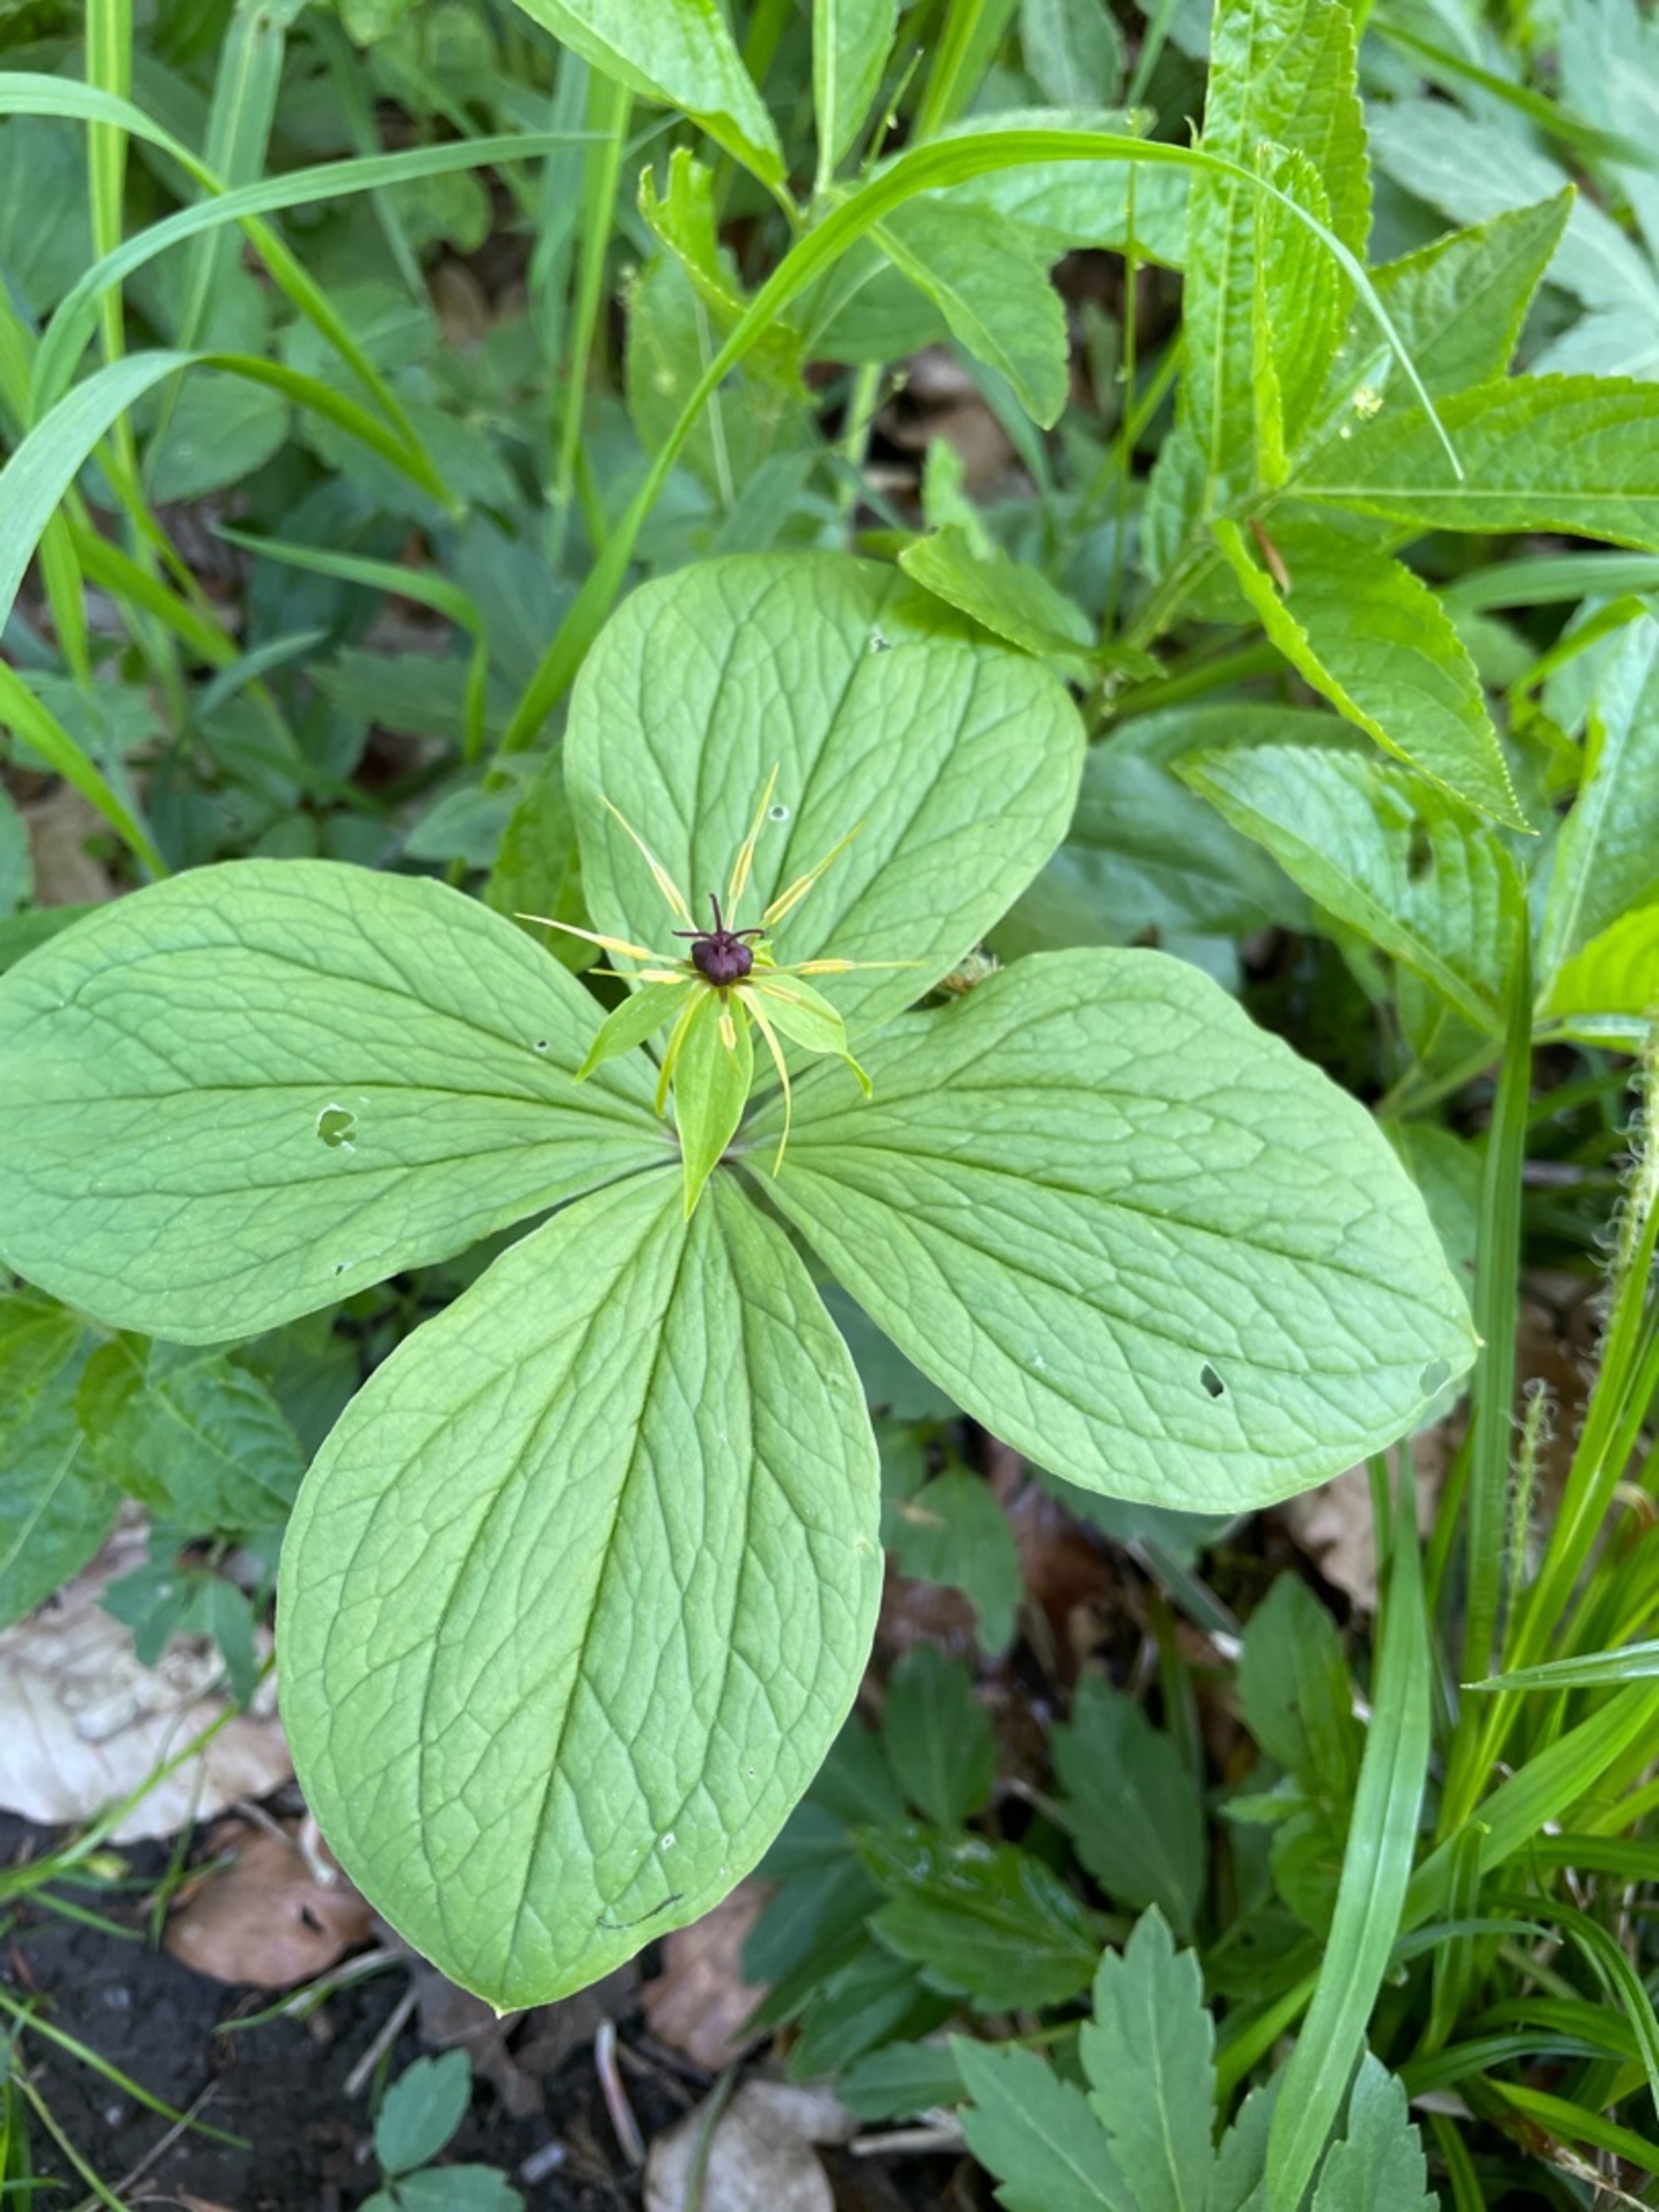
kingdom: Plantae
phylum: Tracheophyta
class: Liliopsida
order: Liliales
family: Melanthiaceae
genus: Paris
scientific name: Paris quadrifolia
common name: Firblad
